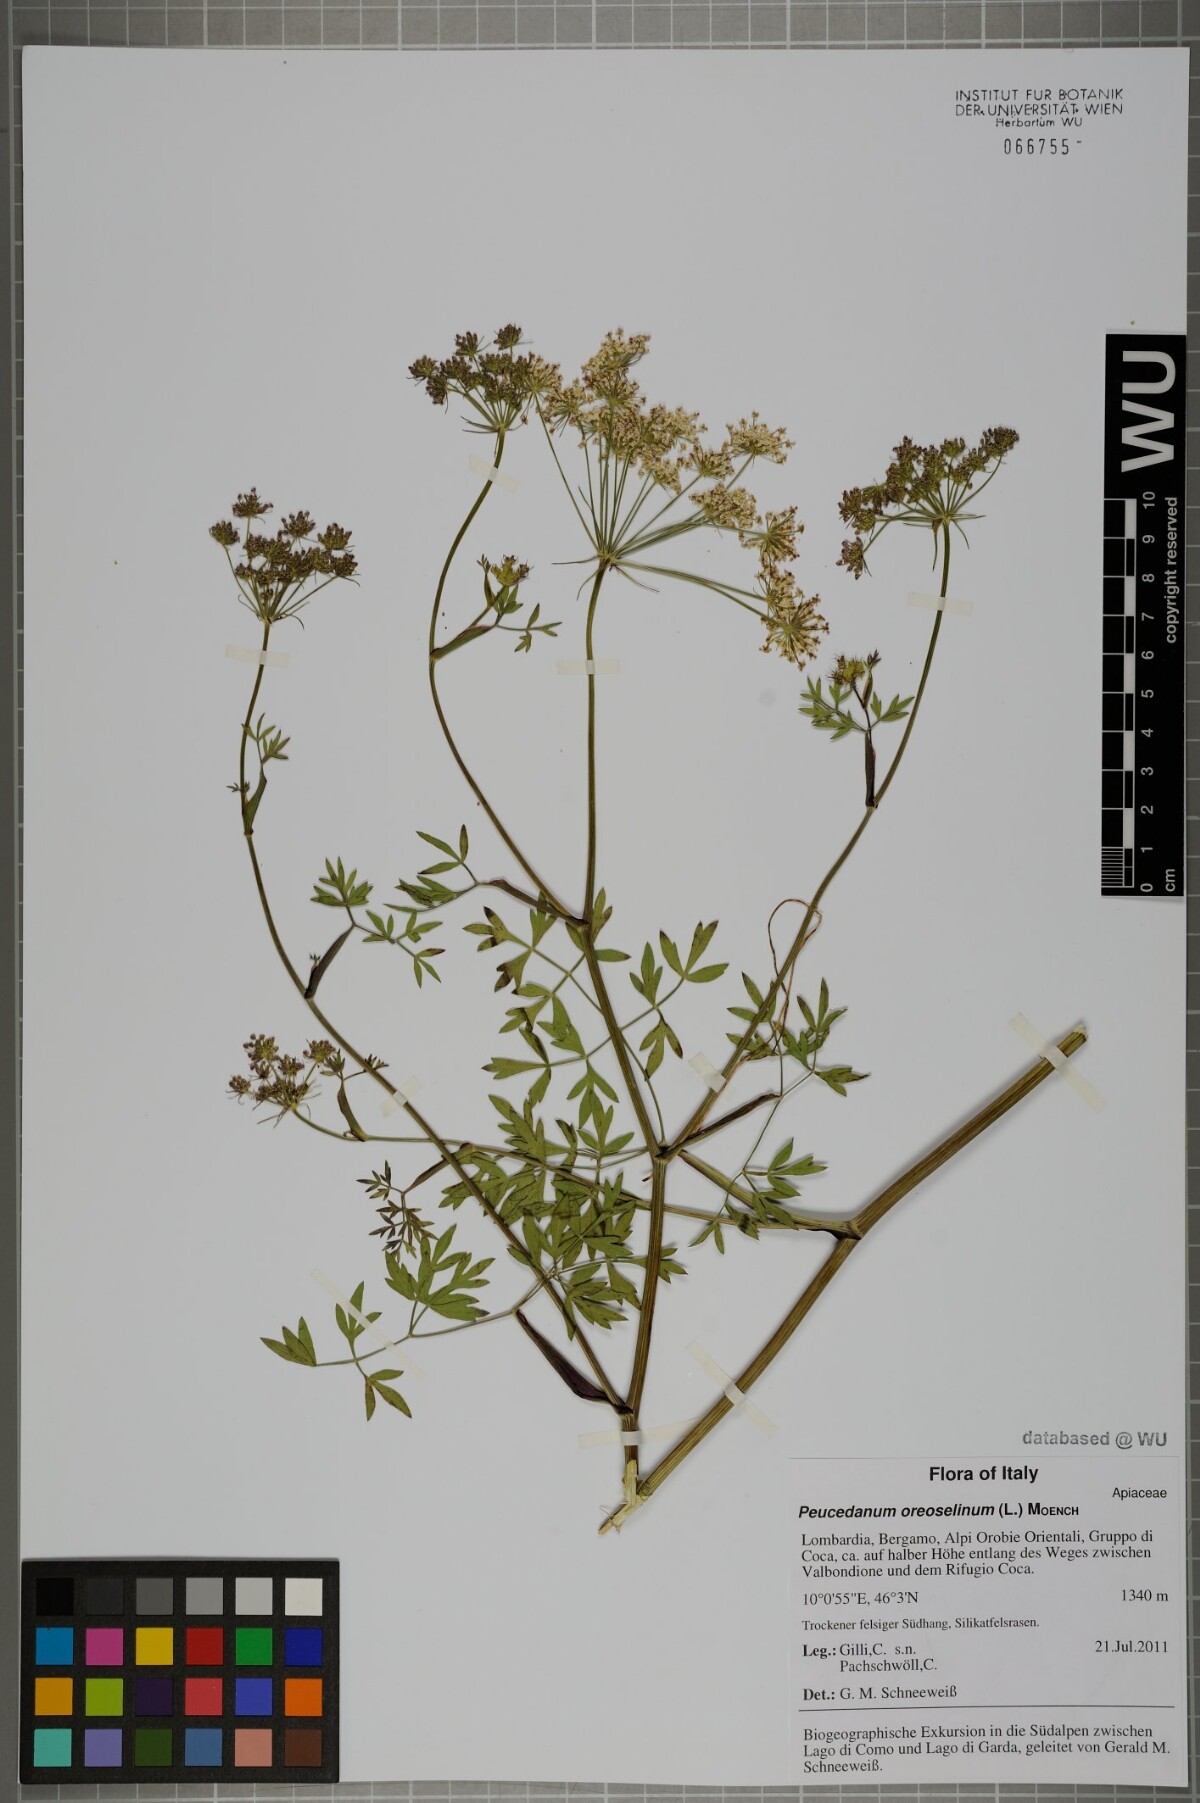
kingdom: Plantae
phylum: Tracheophyta
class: Magnoliopsida
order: Apiales
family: Apiaceae
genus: Oreoselinum
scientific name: Oreoselinum nigrum
